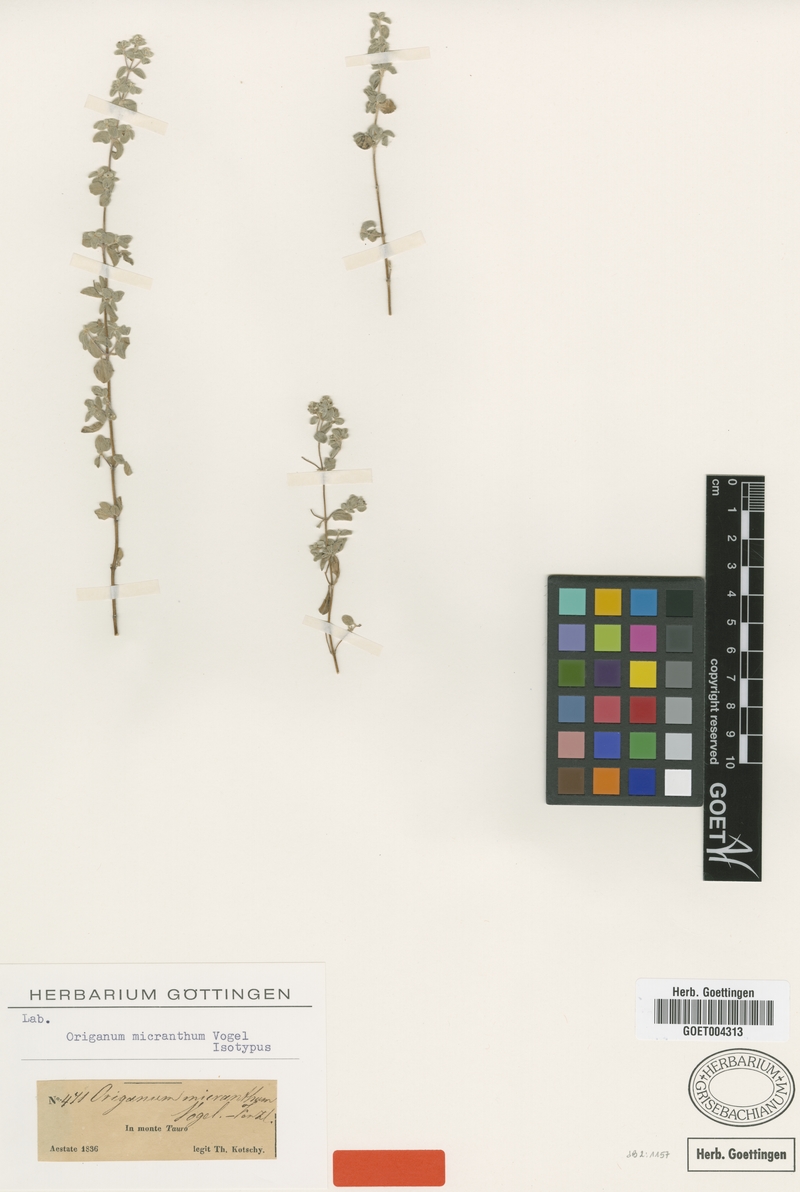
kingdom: Plantae
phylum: Tracheophyta
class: Magnoliopsida
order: Lamiales
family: Lamiaceae
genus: Origanum
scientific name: Origanum vogelii
